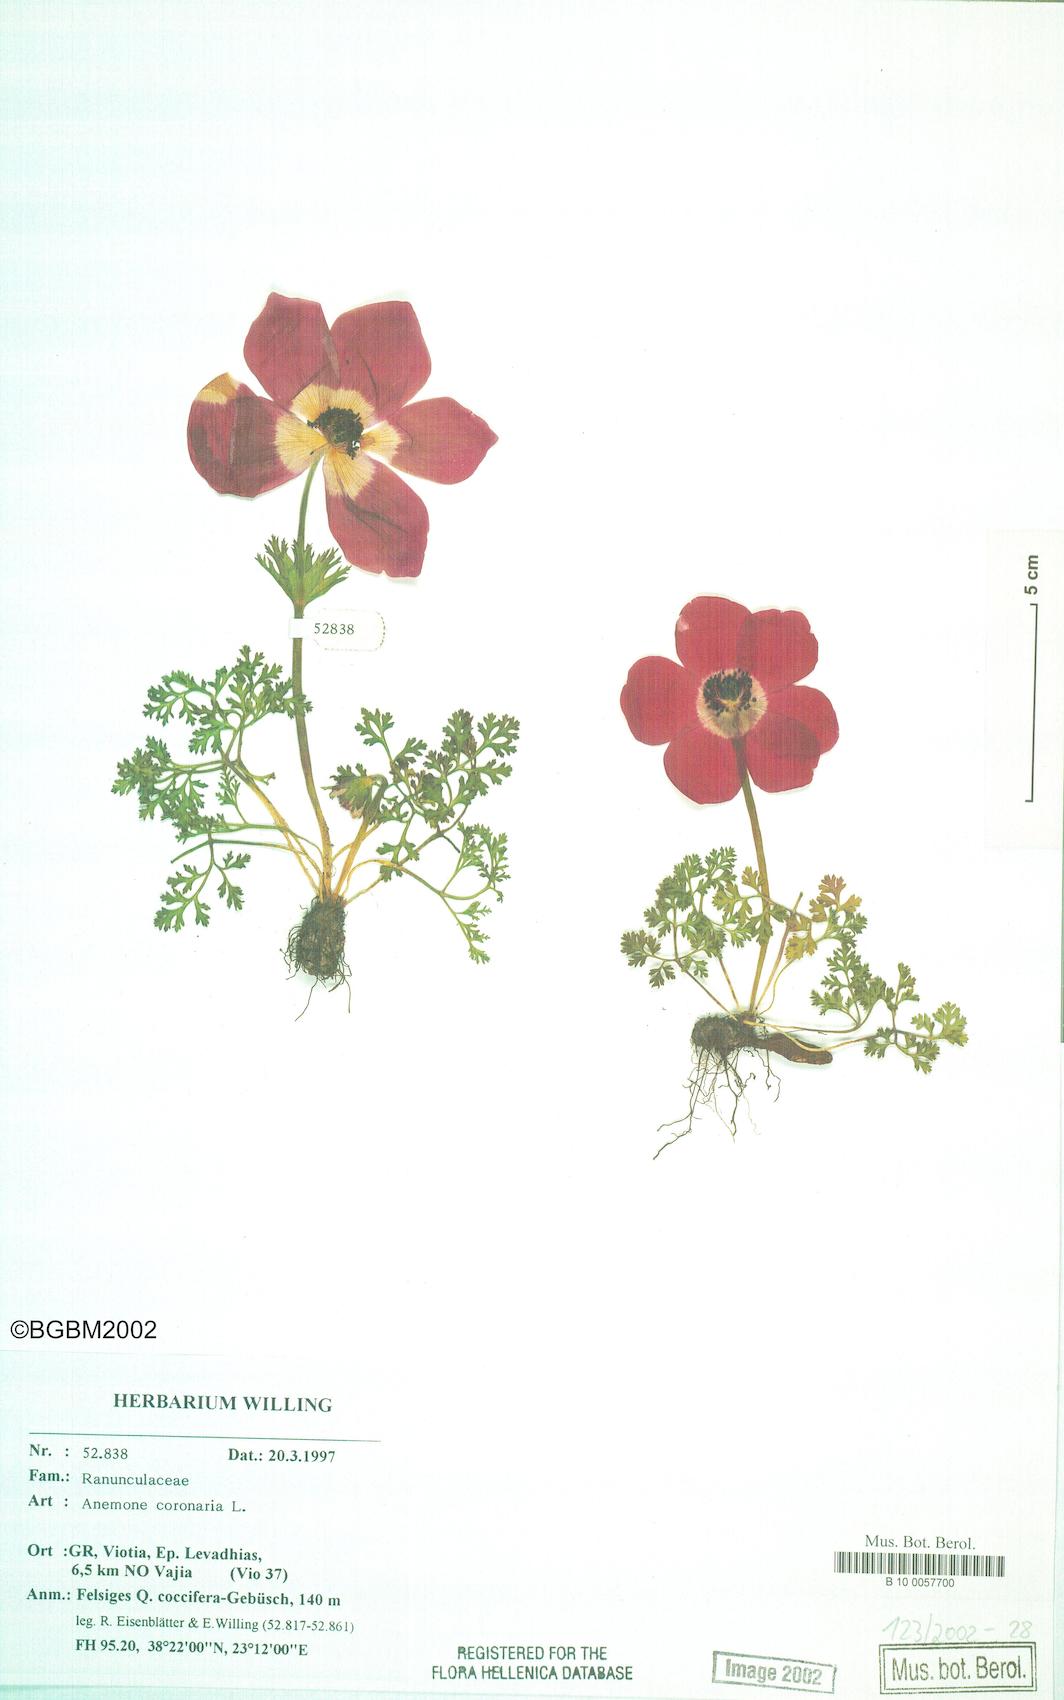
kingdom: Plantae
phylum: Tracheophyta
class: Magnoliopsida
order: Ranunculales
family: Ranunculaceae
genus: Anemone
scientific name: Anemone coronaria
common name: Poppy anemone
